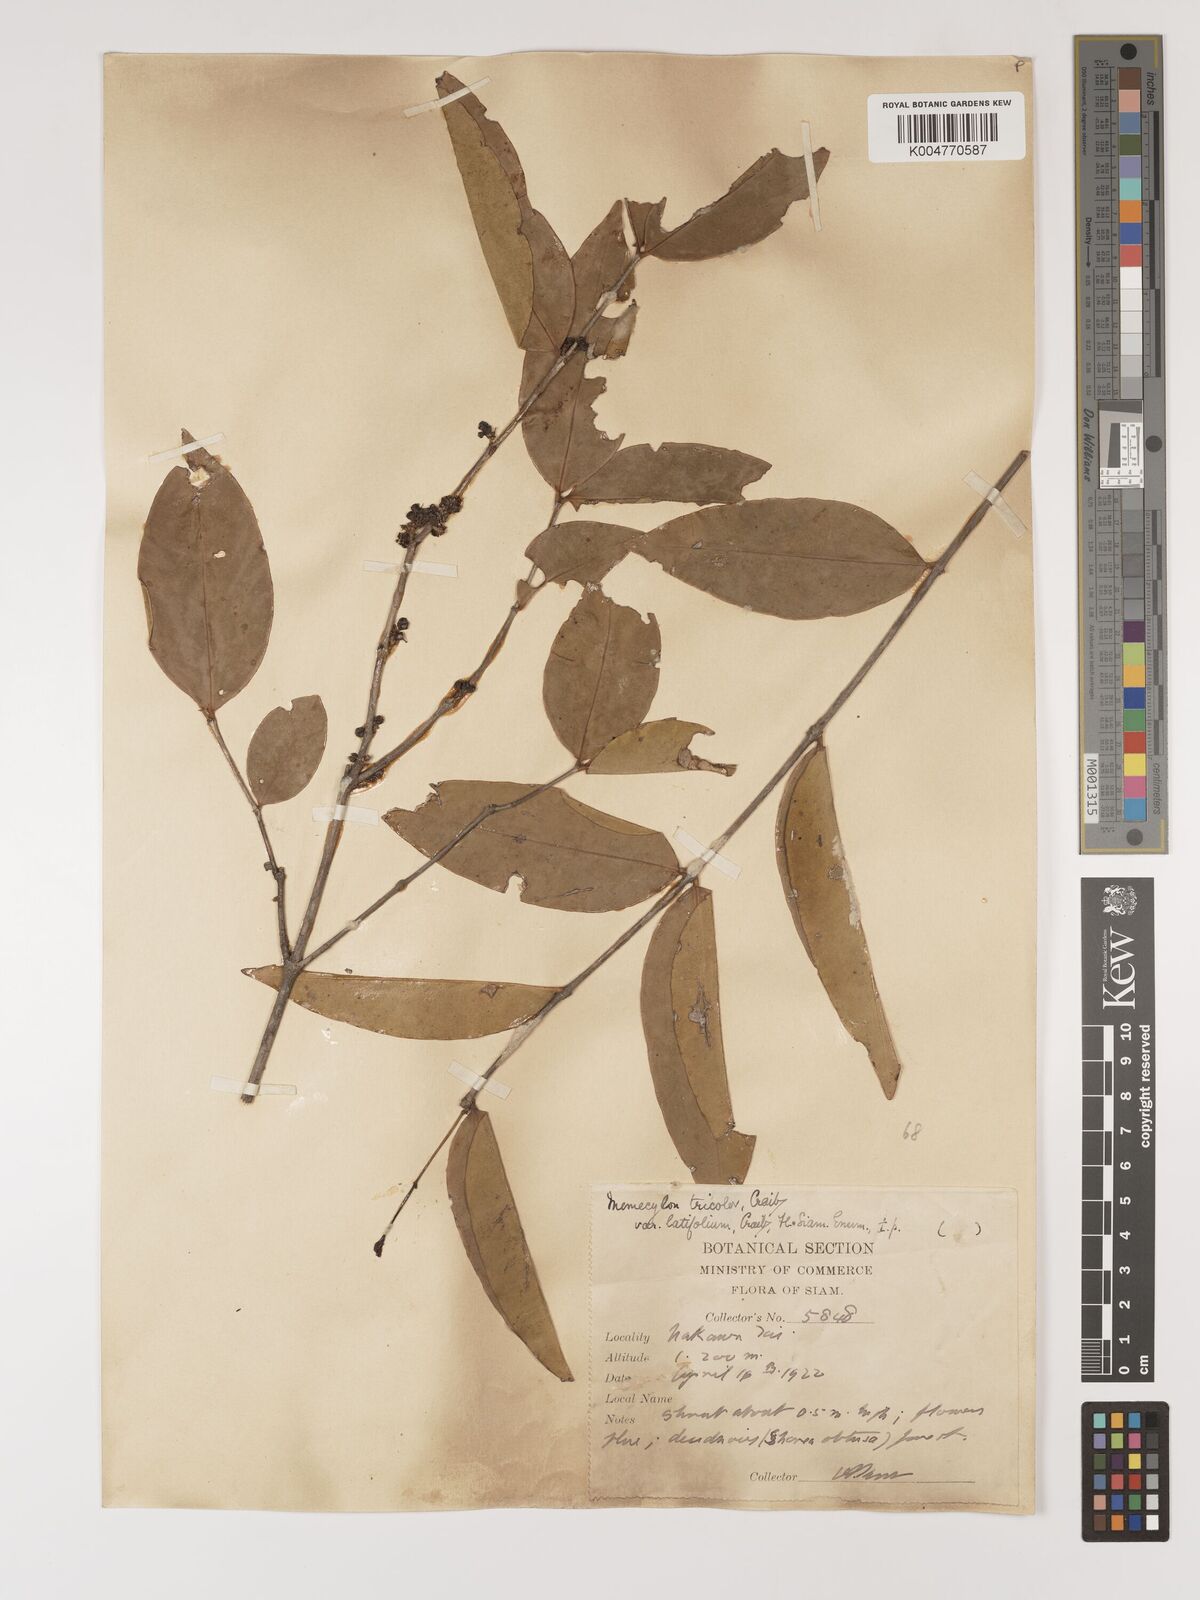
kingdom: Plantae
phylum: Tracheophyta
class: Magnoliopsida
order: Myrtales
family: Melastomataceae
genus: Memecylon
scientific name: Memecylon tricolor
